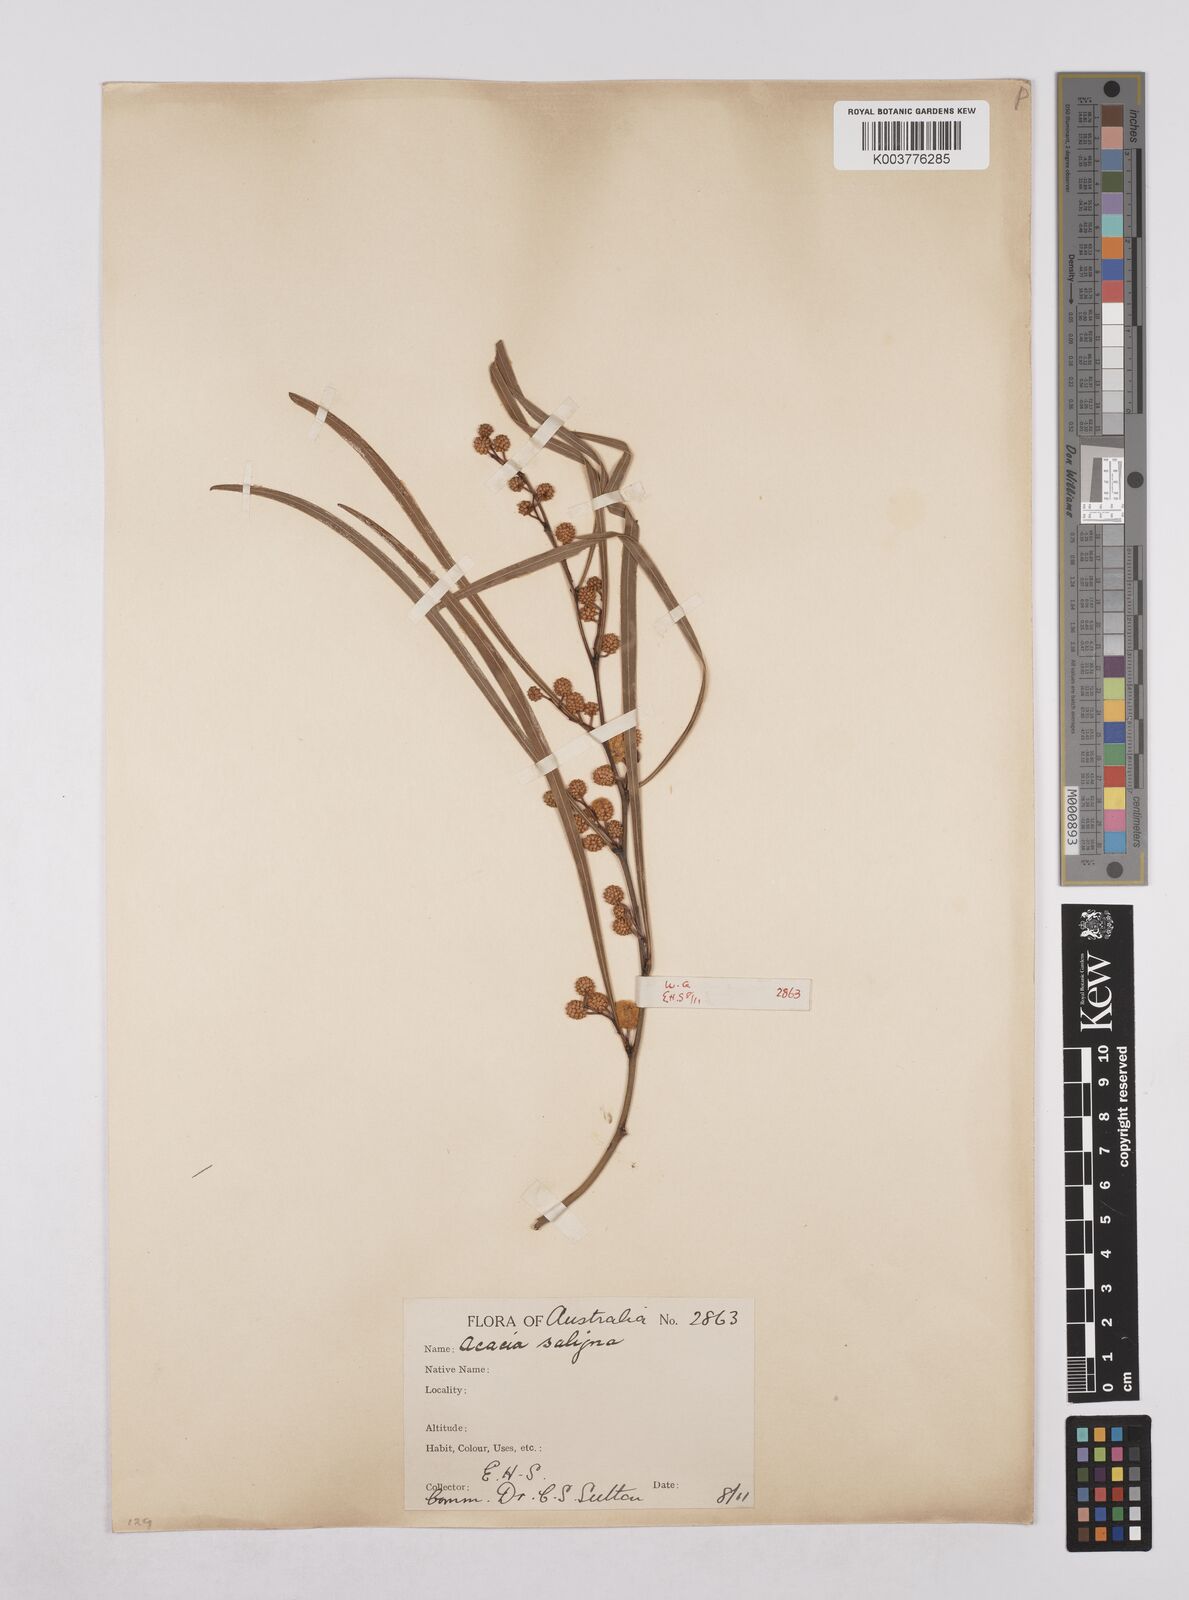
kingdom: Plantae
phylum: Tracheophyta
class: Magnoliopsida
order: Fabales
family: Fabaceae
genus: Acacia
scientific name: Acacia saligna
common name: Orange wattle
